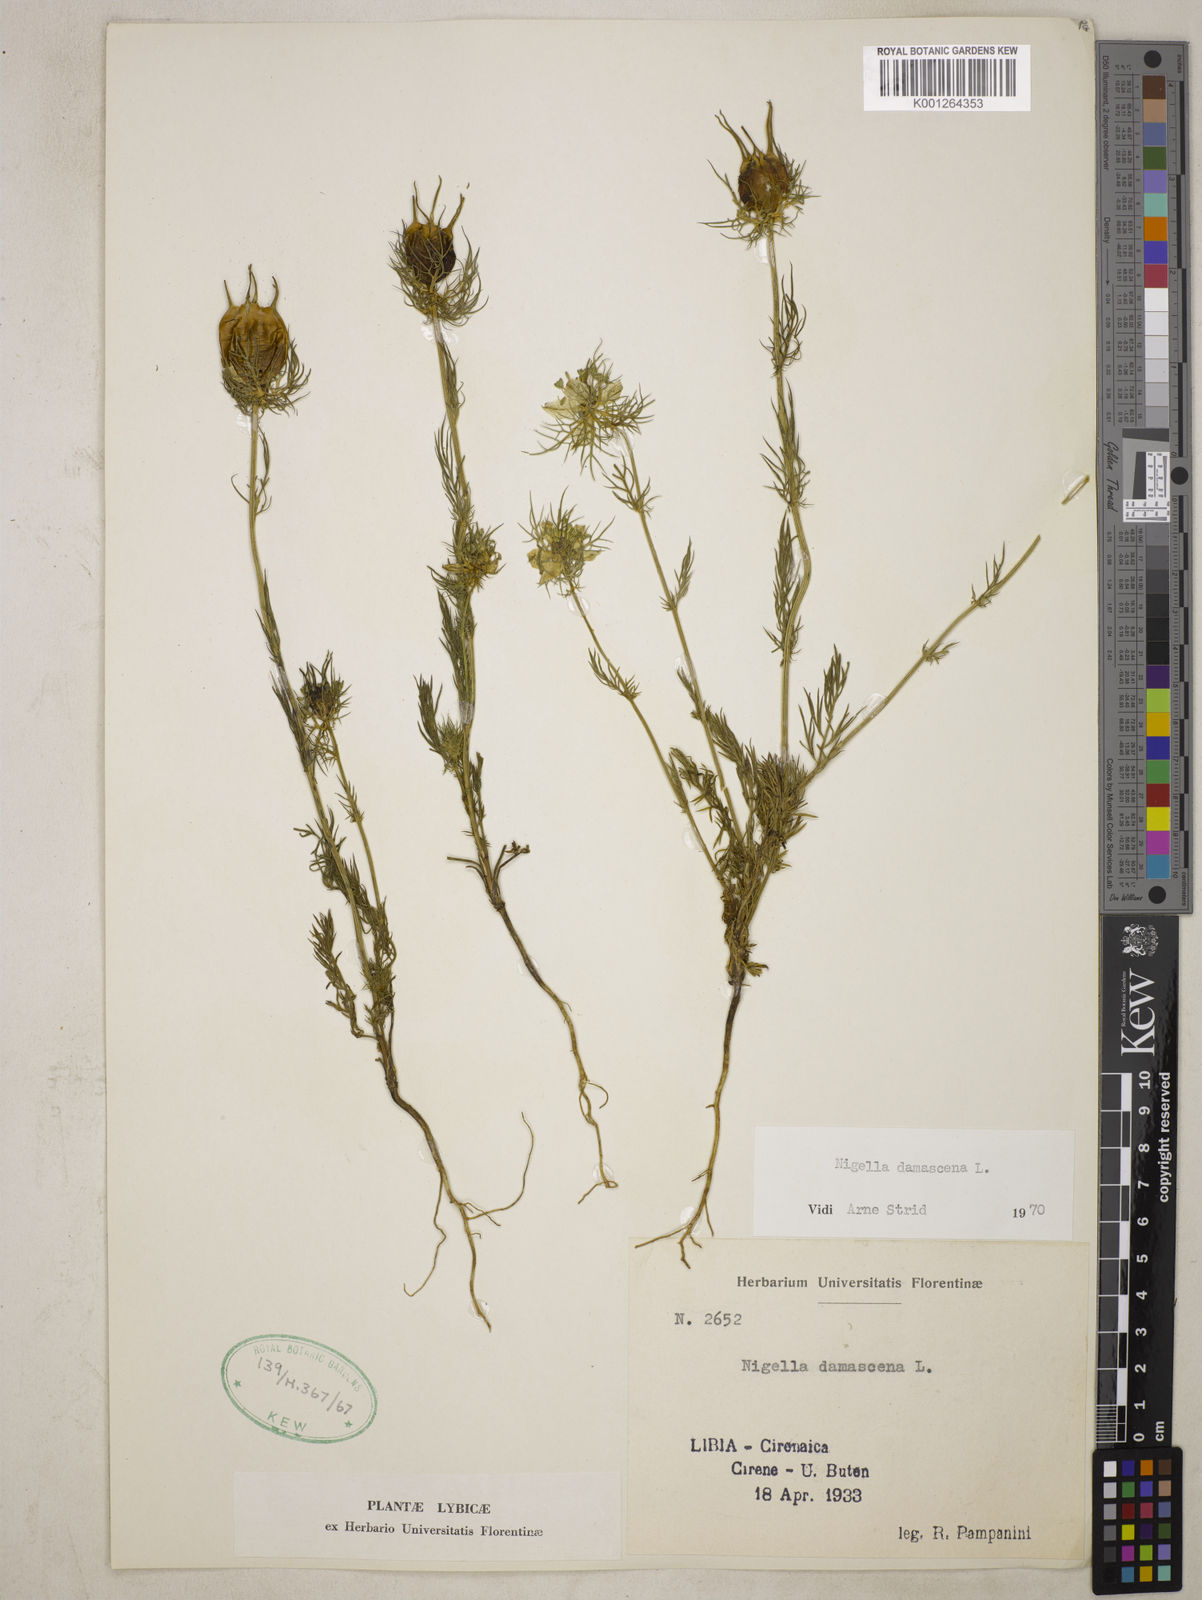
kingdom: Plantae
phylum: Tracheophyta
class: Magnoliopsida
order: Ranunculales
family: Ranunculaceae
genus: Nigella
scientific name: Nigella damascena
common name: Love-in-a-mist
